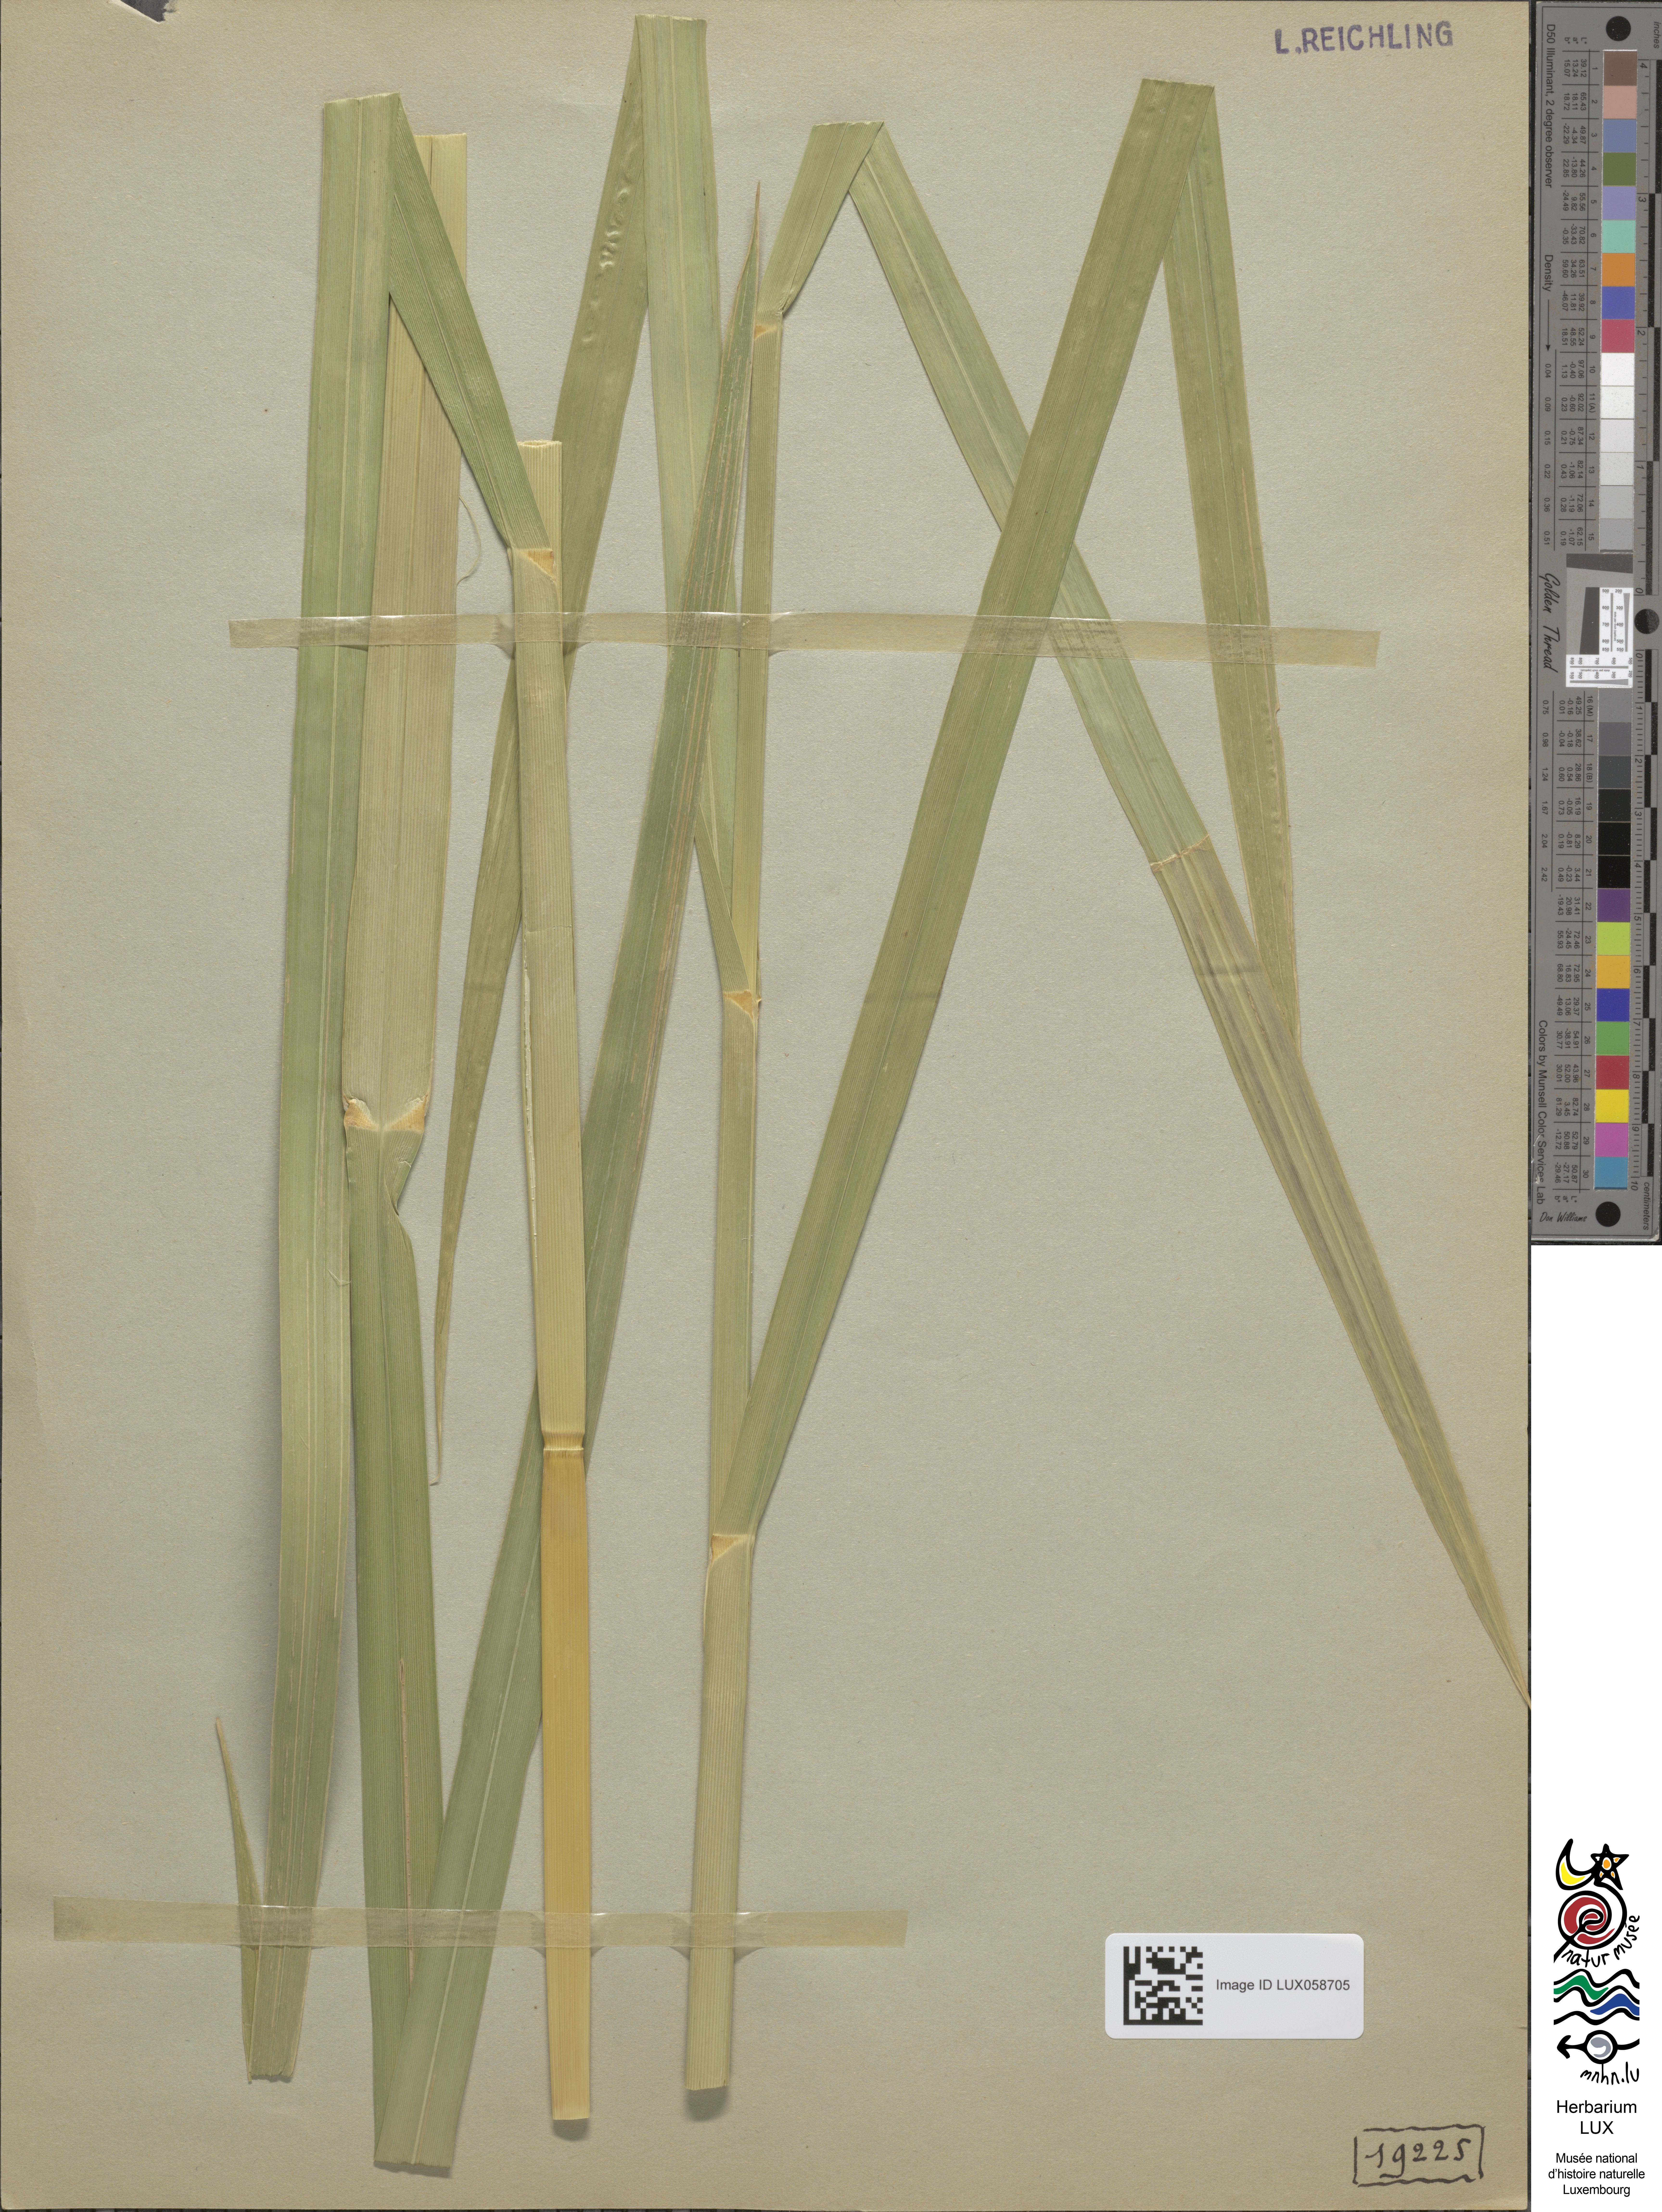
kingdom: Plantae
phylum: Tracheophyta
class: Liliopsida
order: Poales
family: Poaceae
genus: Glyceria
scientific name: Glyceria maxima
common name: Reed mannagrass
